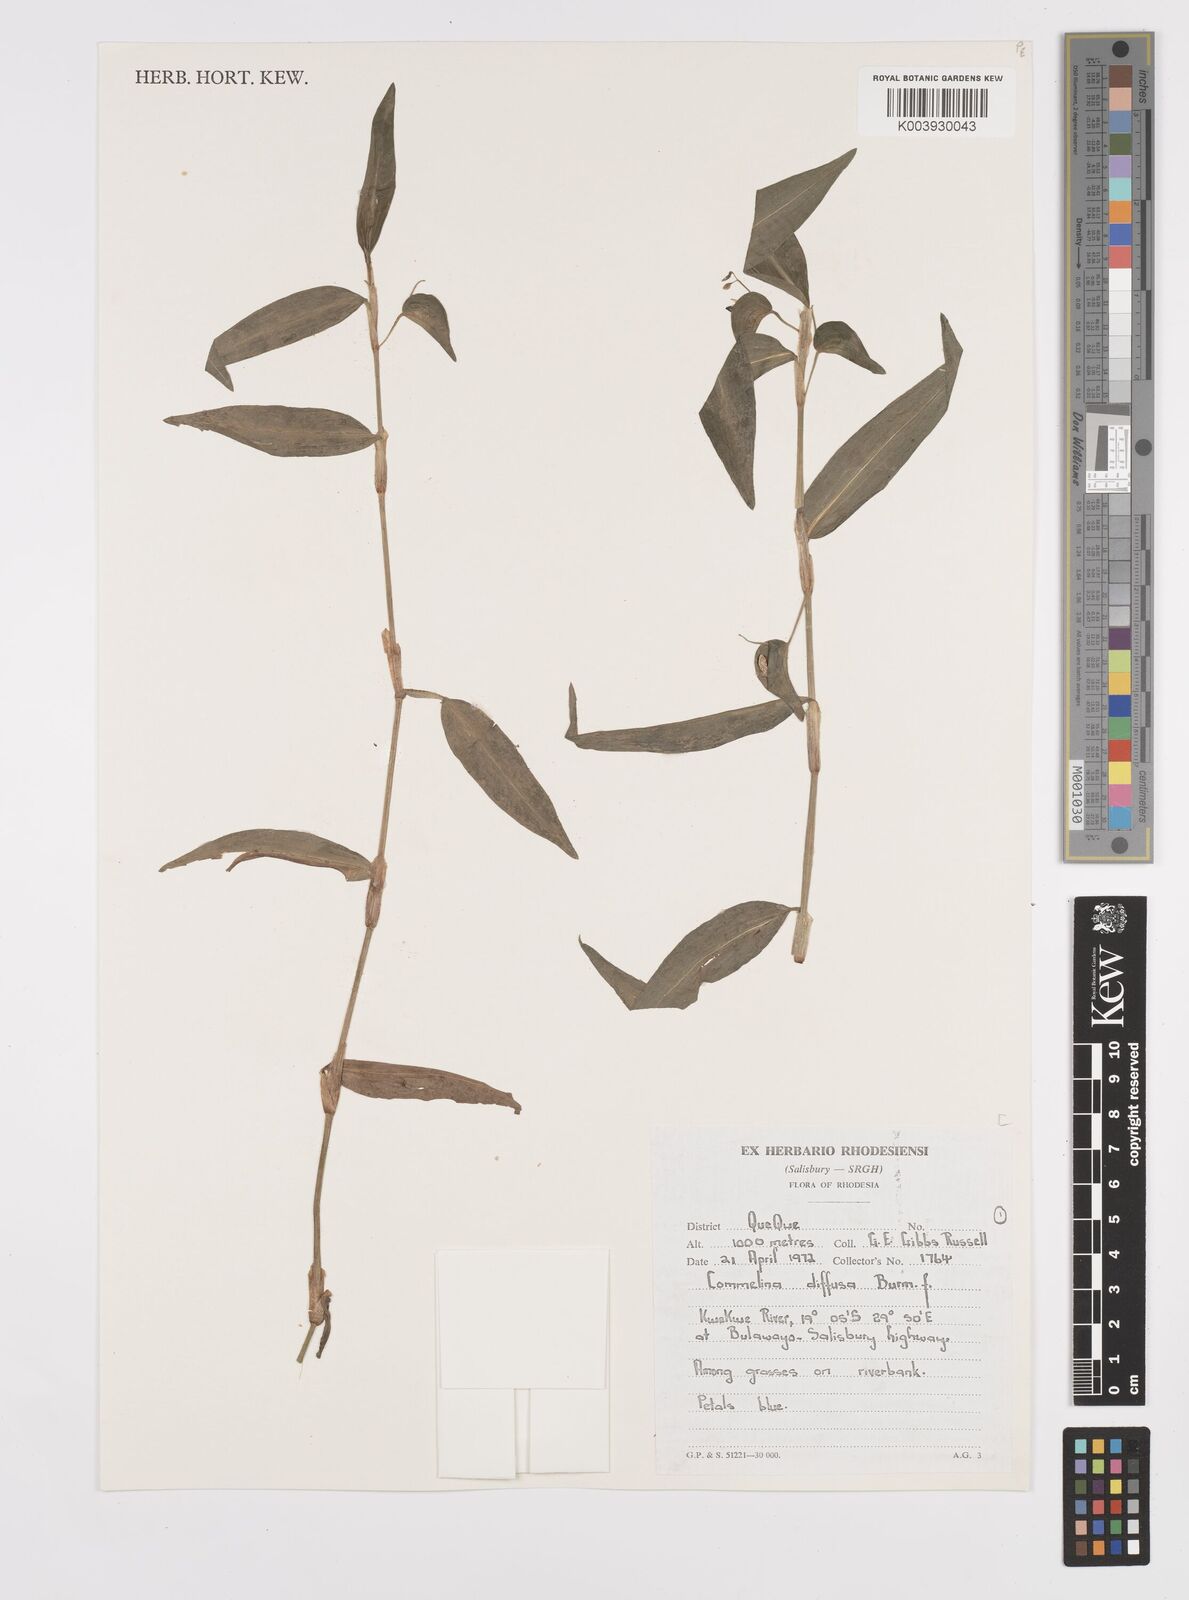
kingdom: Plantae
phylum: Tracheophyta
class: Liliopsida
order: Commelinales
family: Commelinaceae
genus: Commelina
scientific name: Commelina diffusa
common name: Climbing dayflower
